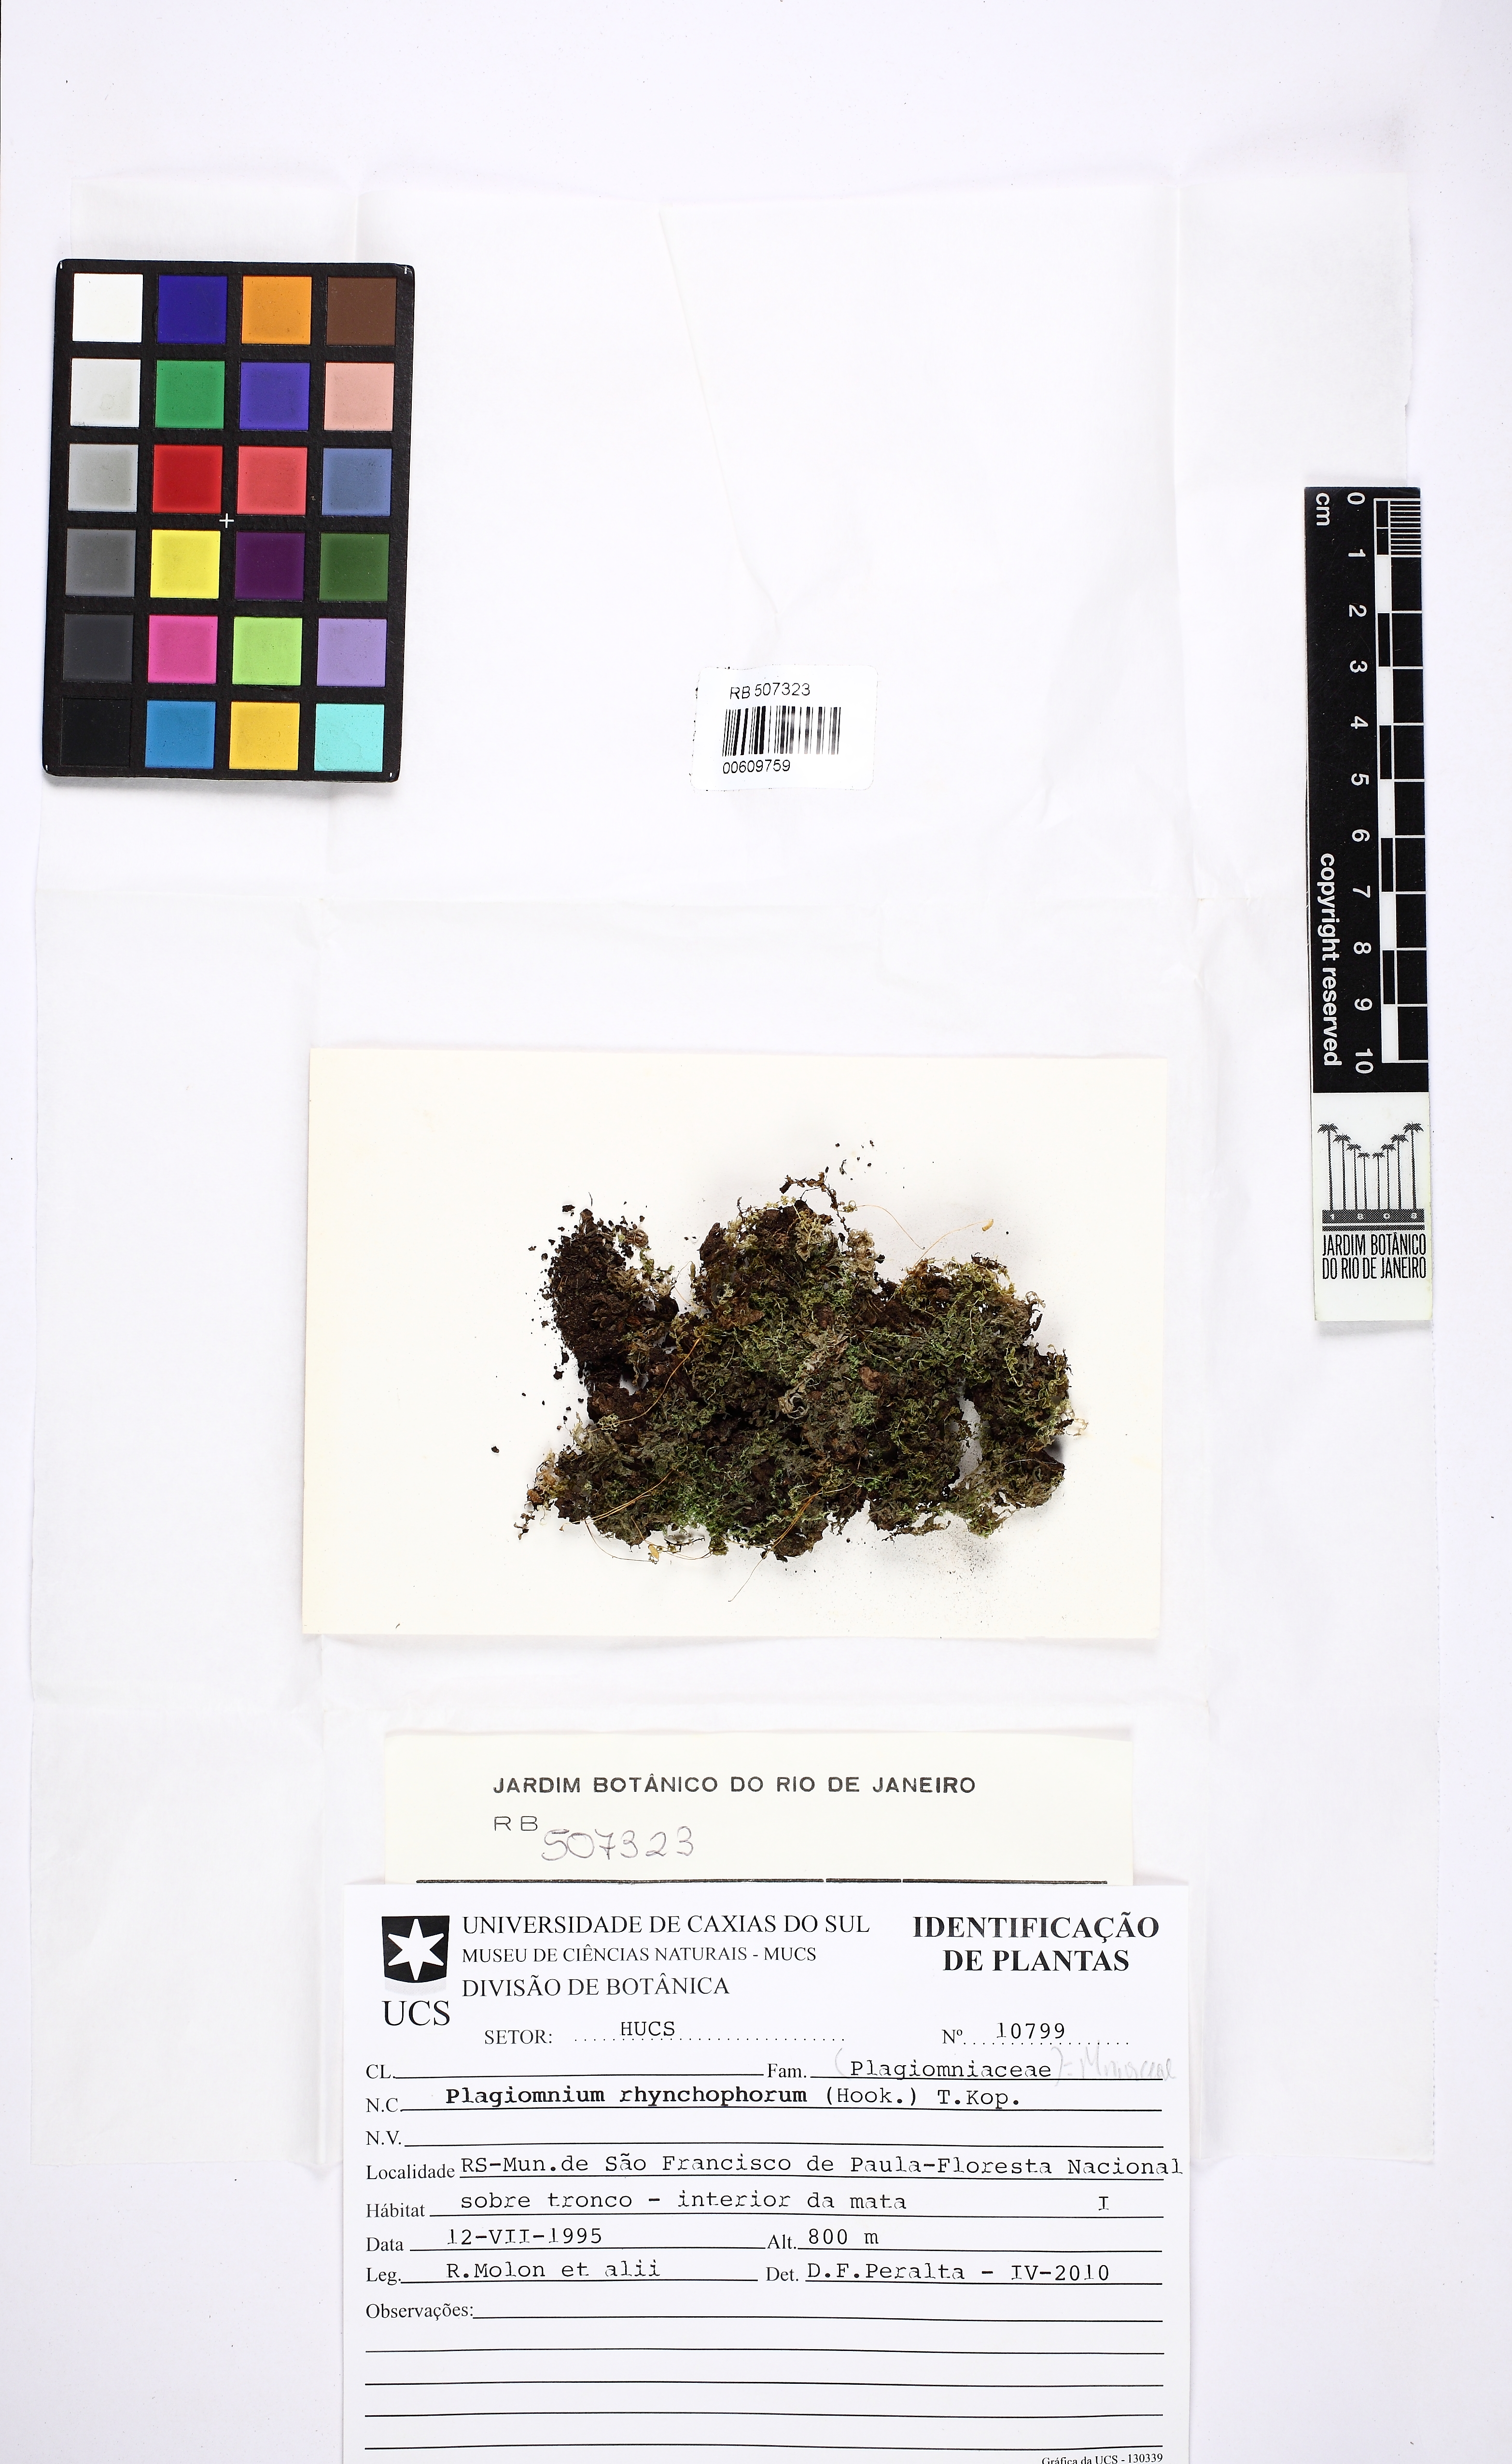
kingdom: Plantae
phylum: Bryophyta
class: Bryopsida
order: Bryales
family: Mniaceae
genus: Plagiomnium
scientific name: Plagiomnium rhynchophorum
